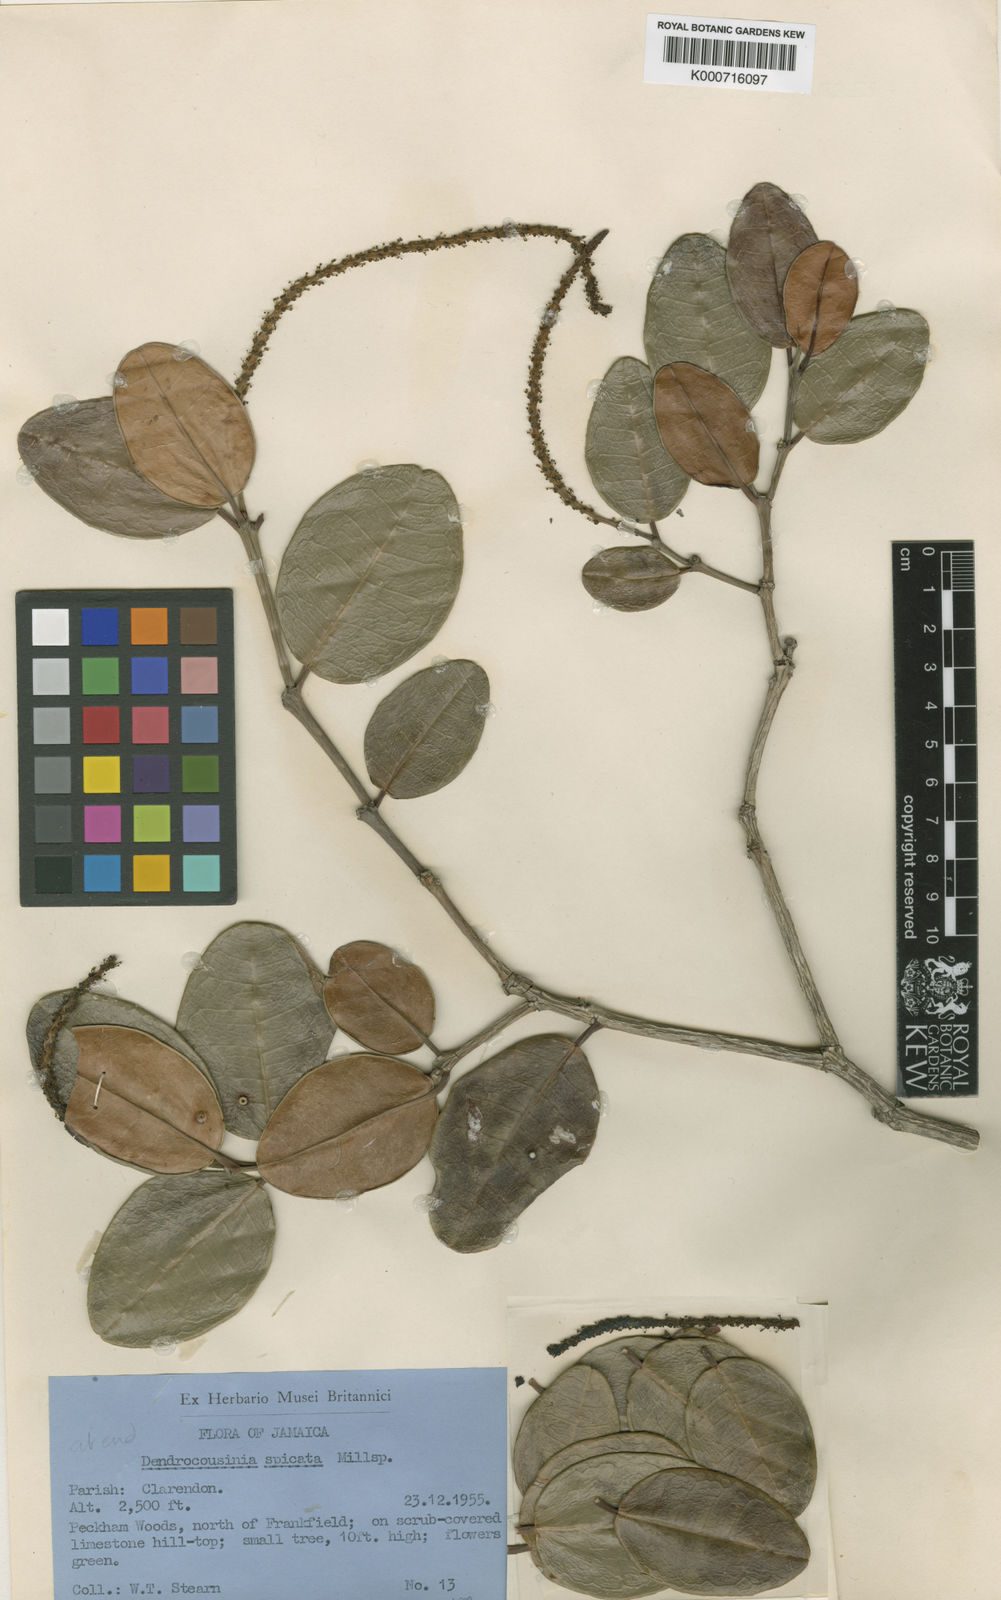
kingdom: Plantae
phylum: Tracheophyta
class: Magnoliopsida
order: Malpighiales
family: Euphorbiaceae
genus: Dendrocousinsia
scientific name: Dendrocousinsia spicata
